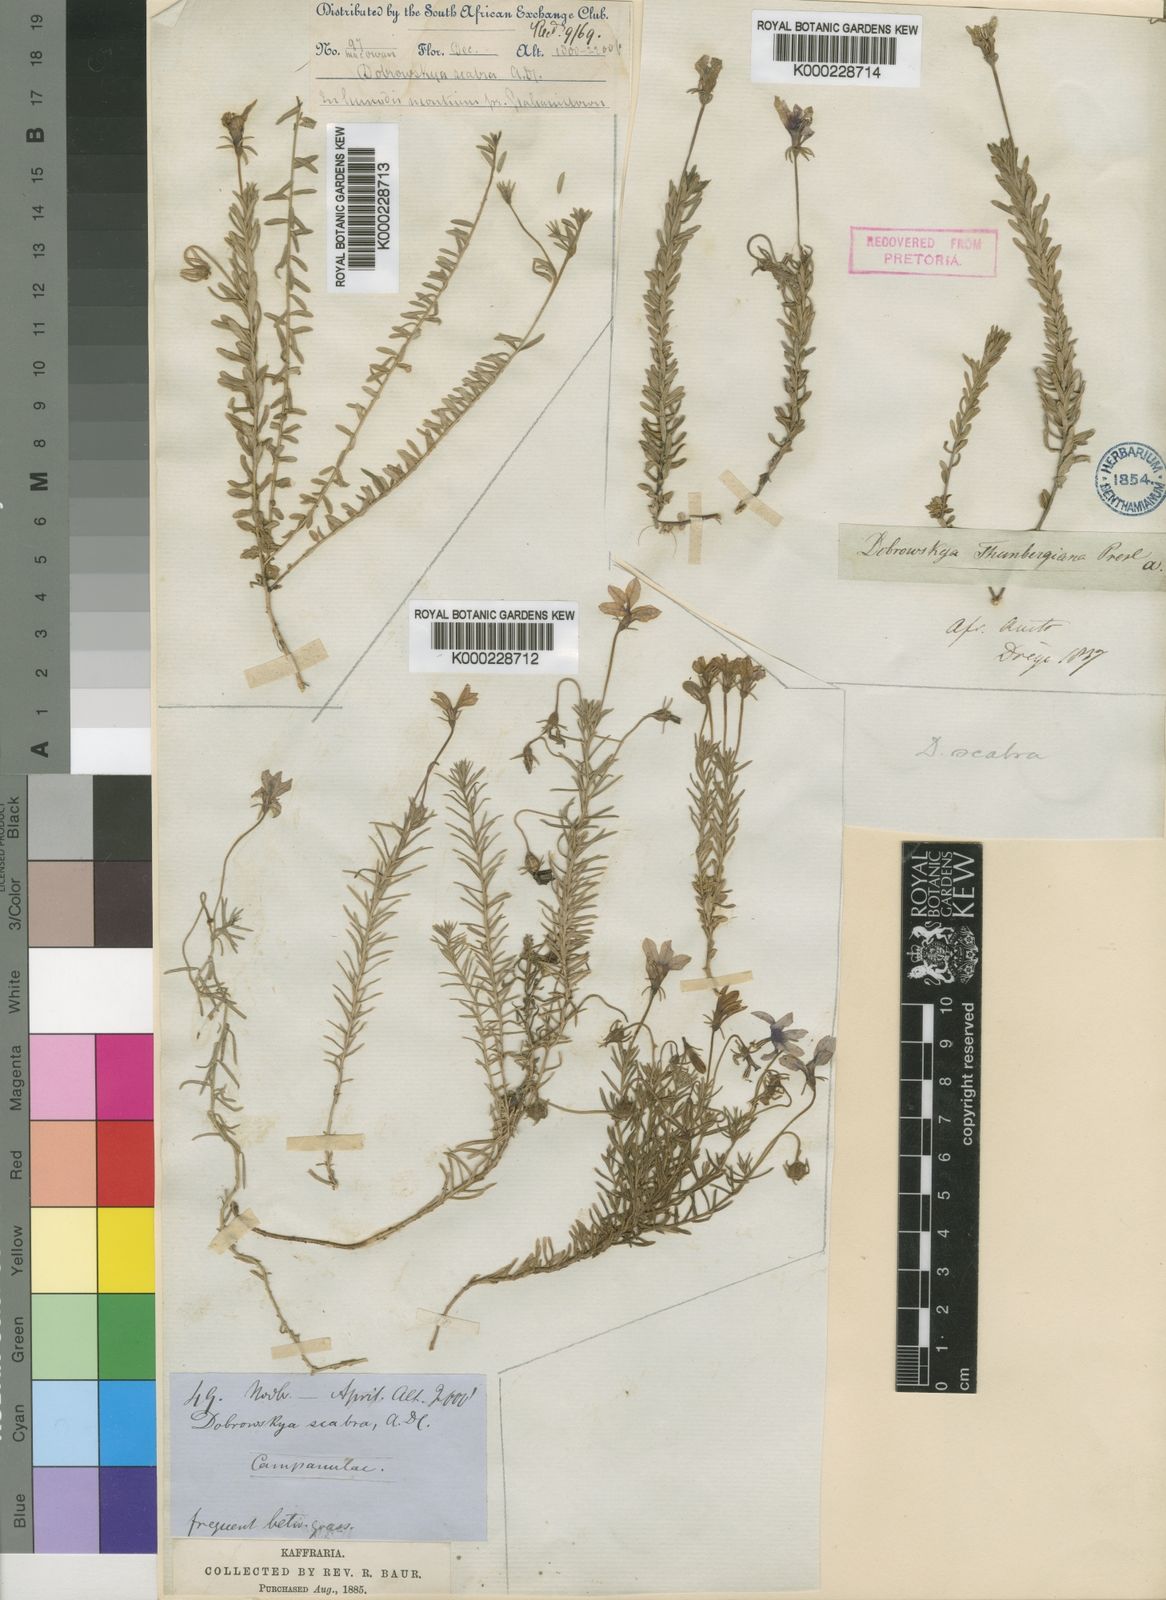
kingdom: Plantae
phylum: Tracheophyta
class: Magnoliopsida
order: Asterales
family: Campanulaceae
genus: Monopsis
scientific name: Monopsis scabra
